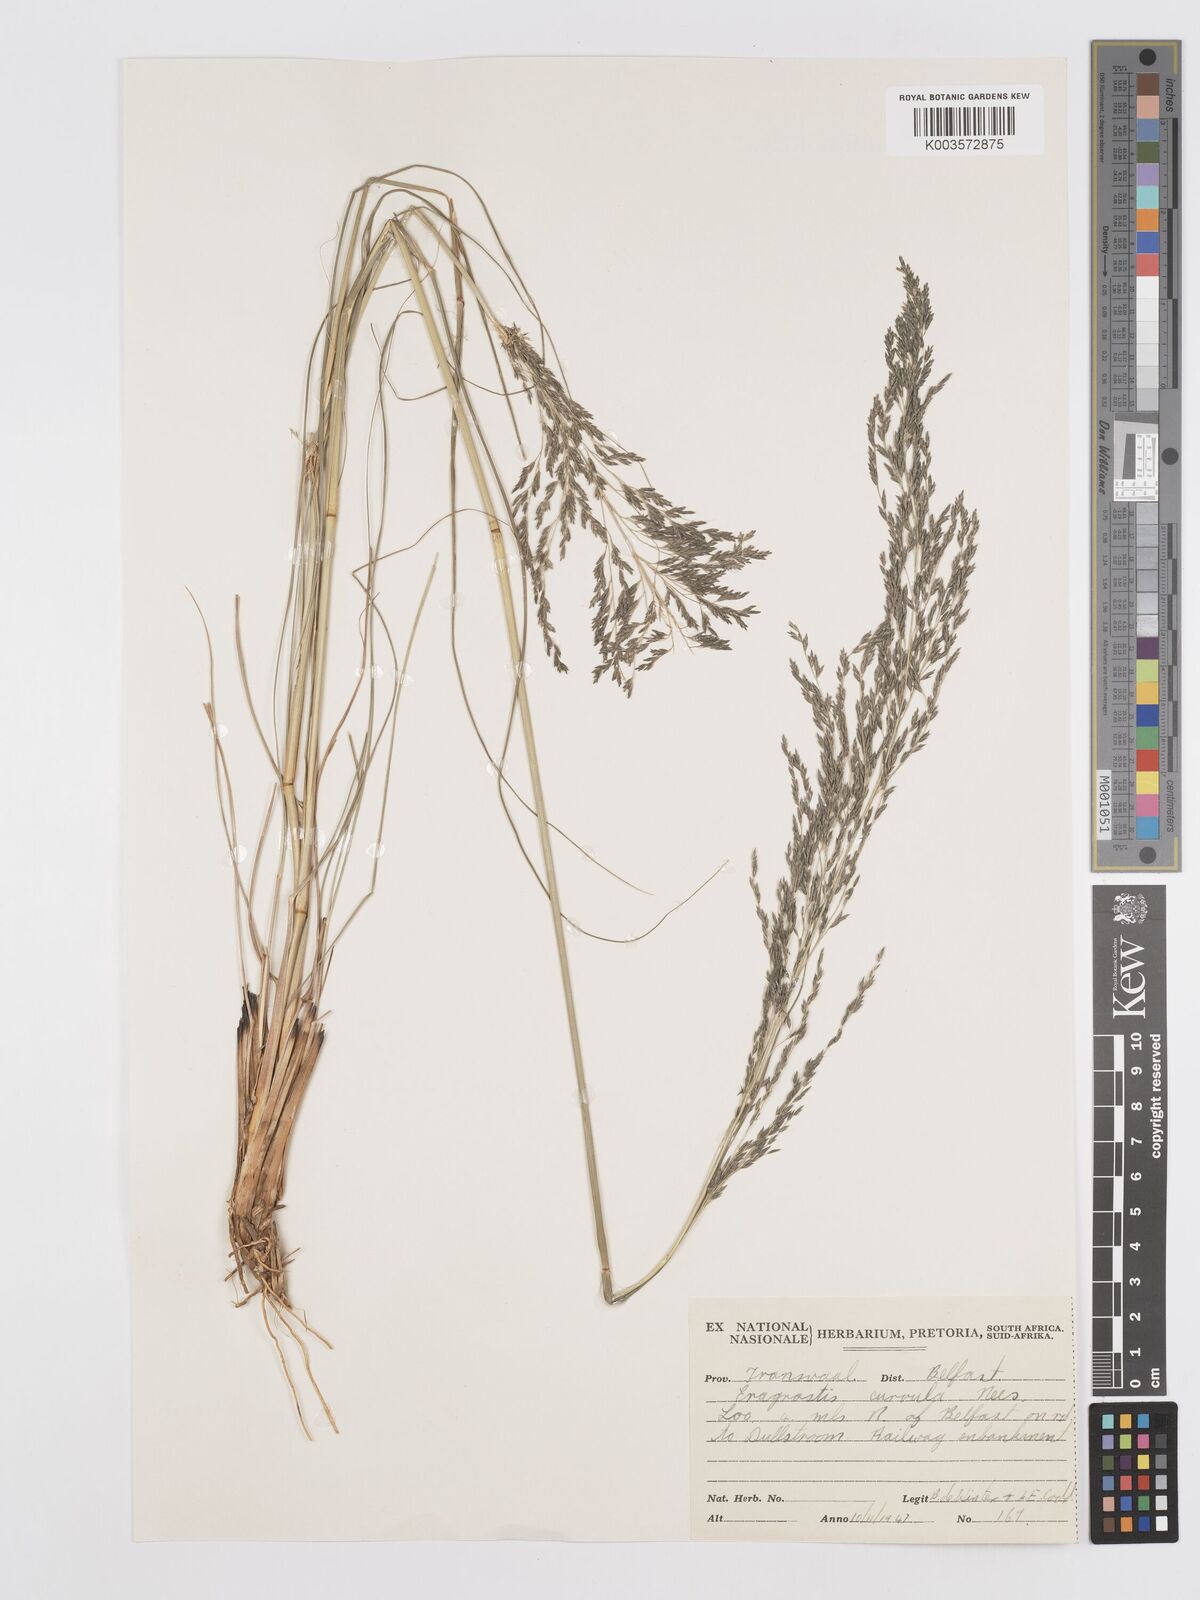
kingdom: Plantae
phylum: Tracheophyta
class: Liliopsida
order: Poales
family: Poaceae
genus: Eragrostis
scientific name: Eragrostis curvula
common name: African love-grass
